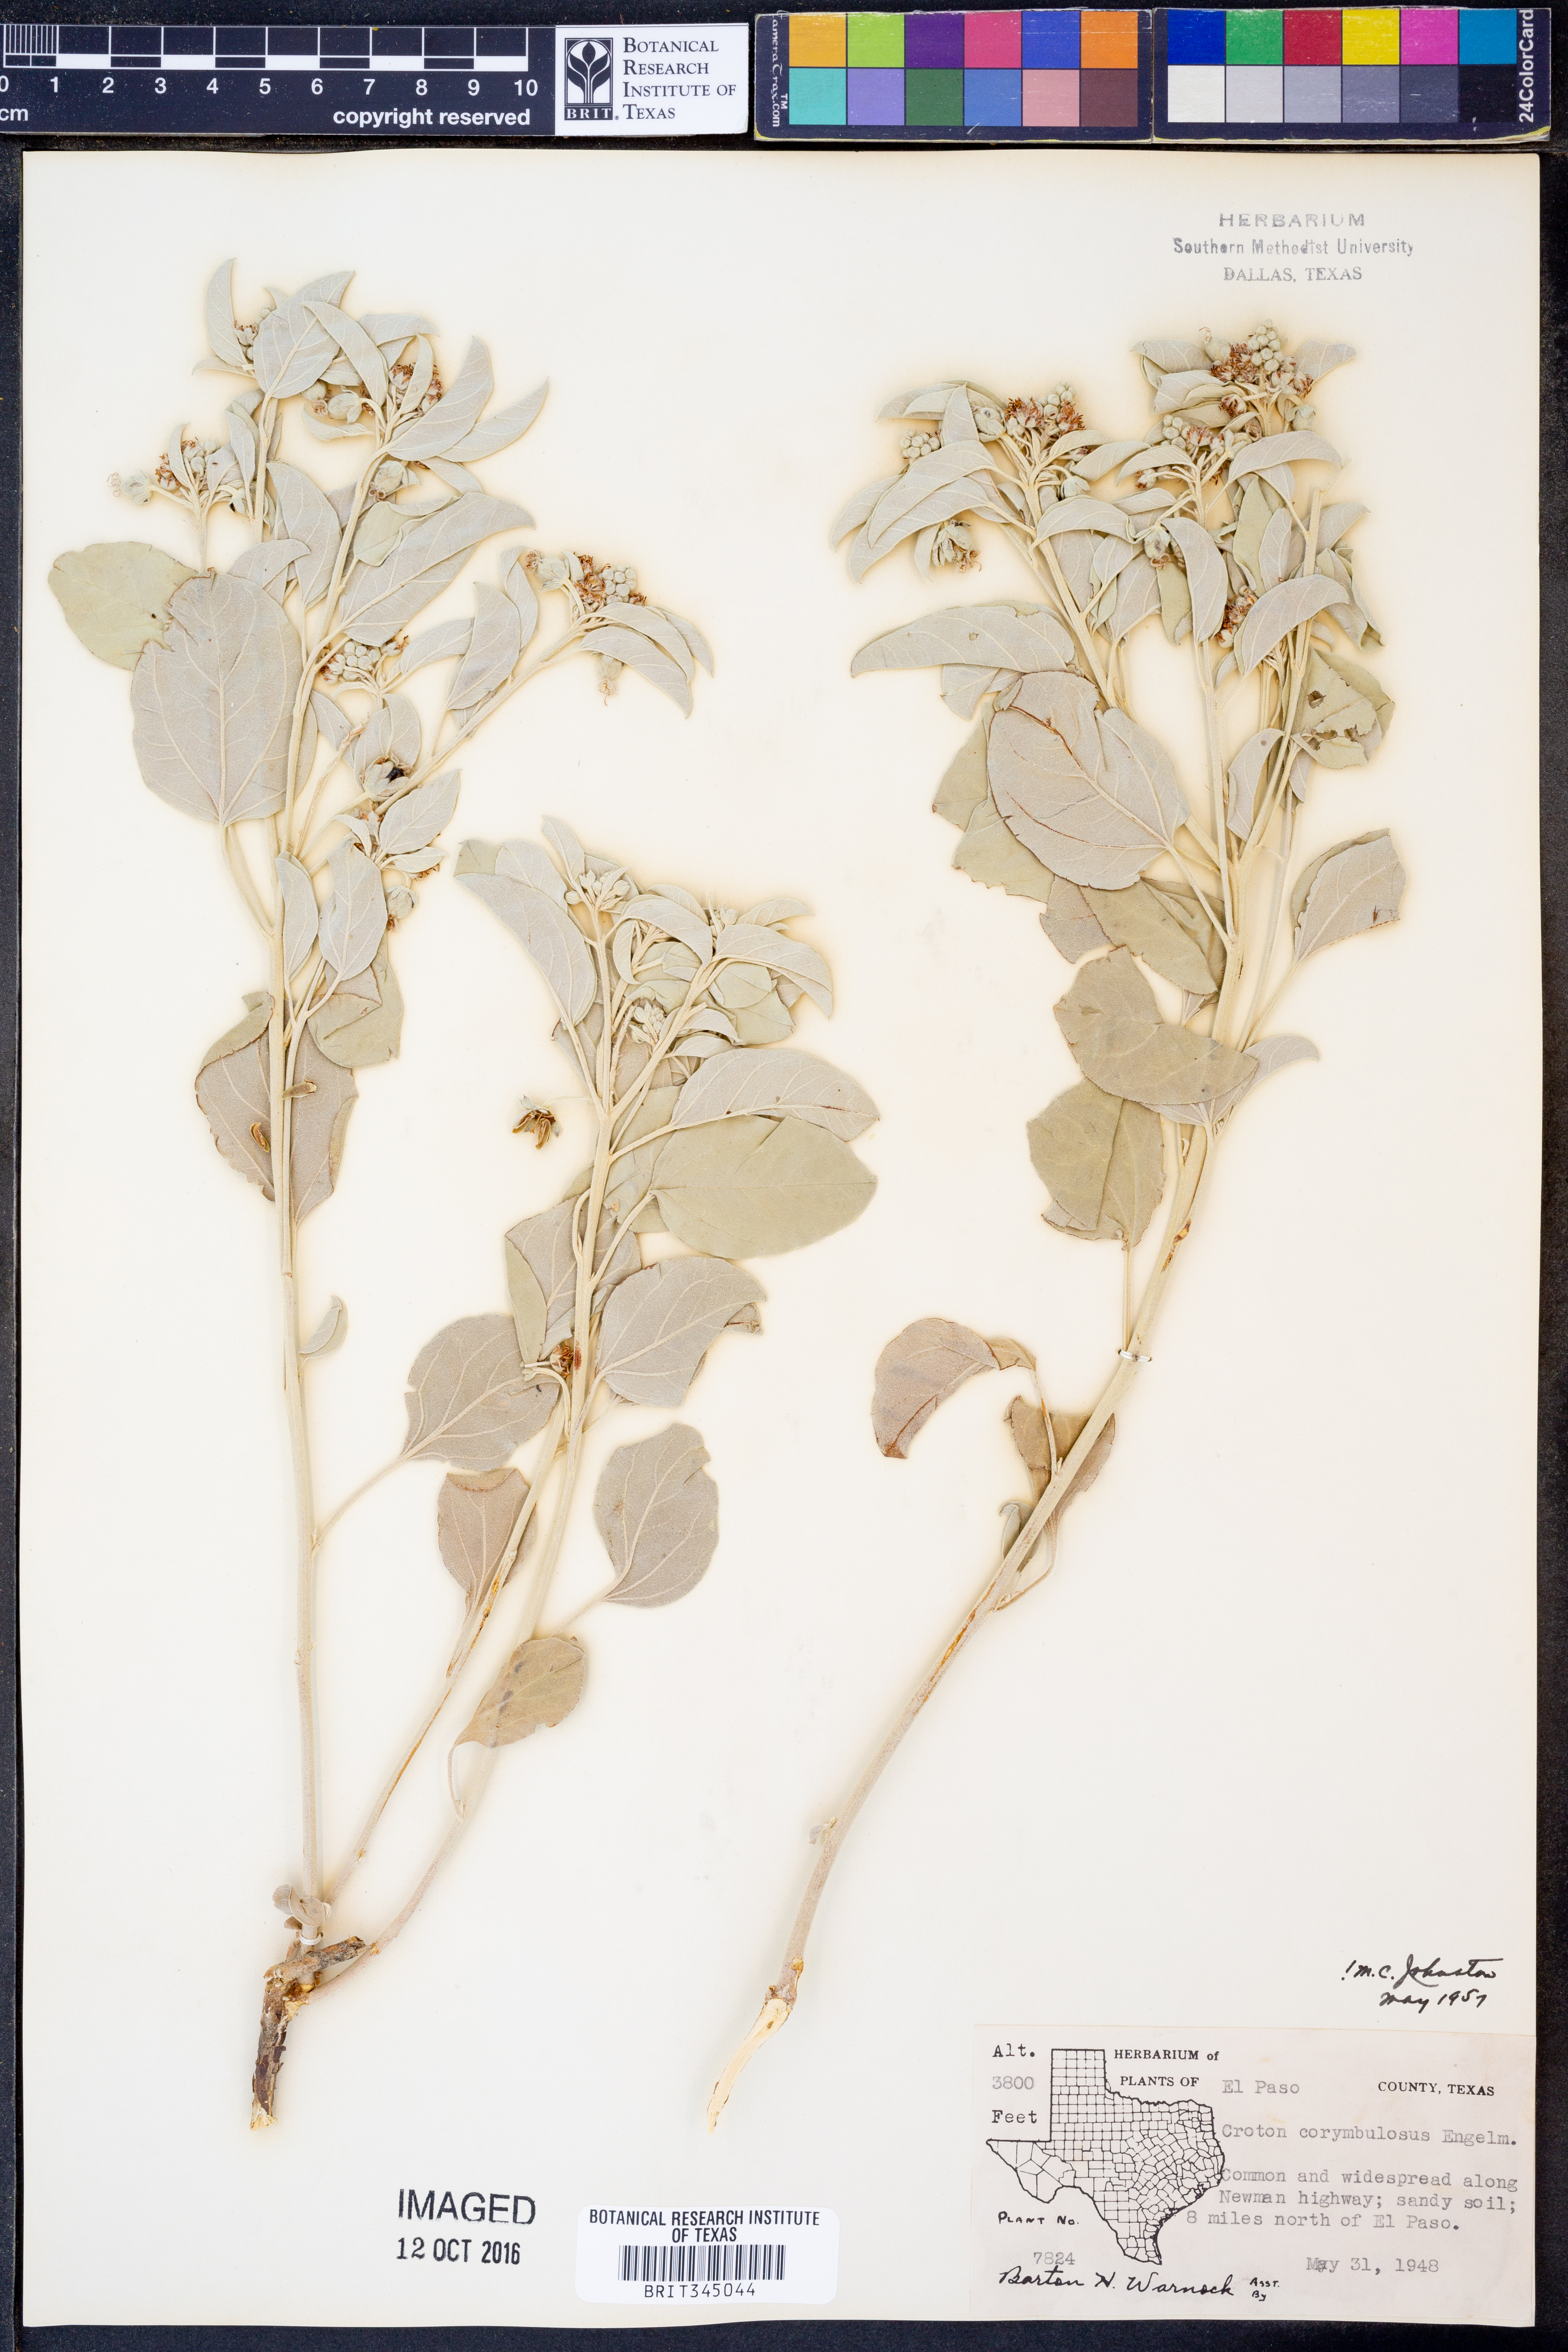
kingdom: Plantae
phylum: Tracheophyta
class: Magnoliopsida
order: Malpighiales
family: Euphorbiaceae
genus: Croton
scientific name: Croton pottsii
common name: Leatherweed
